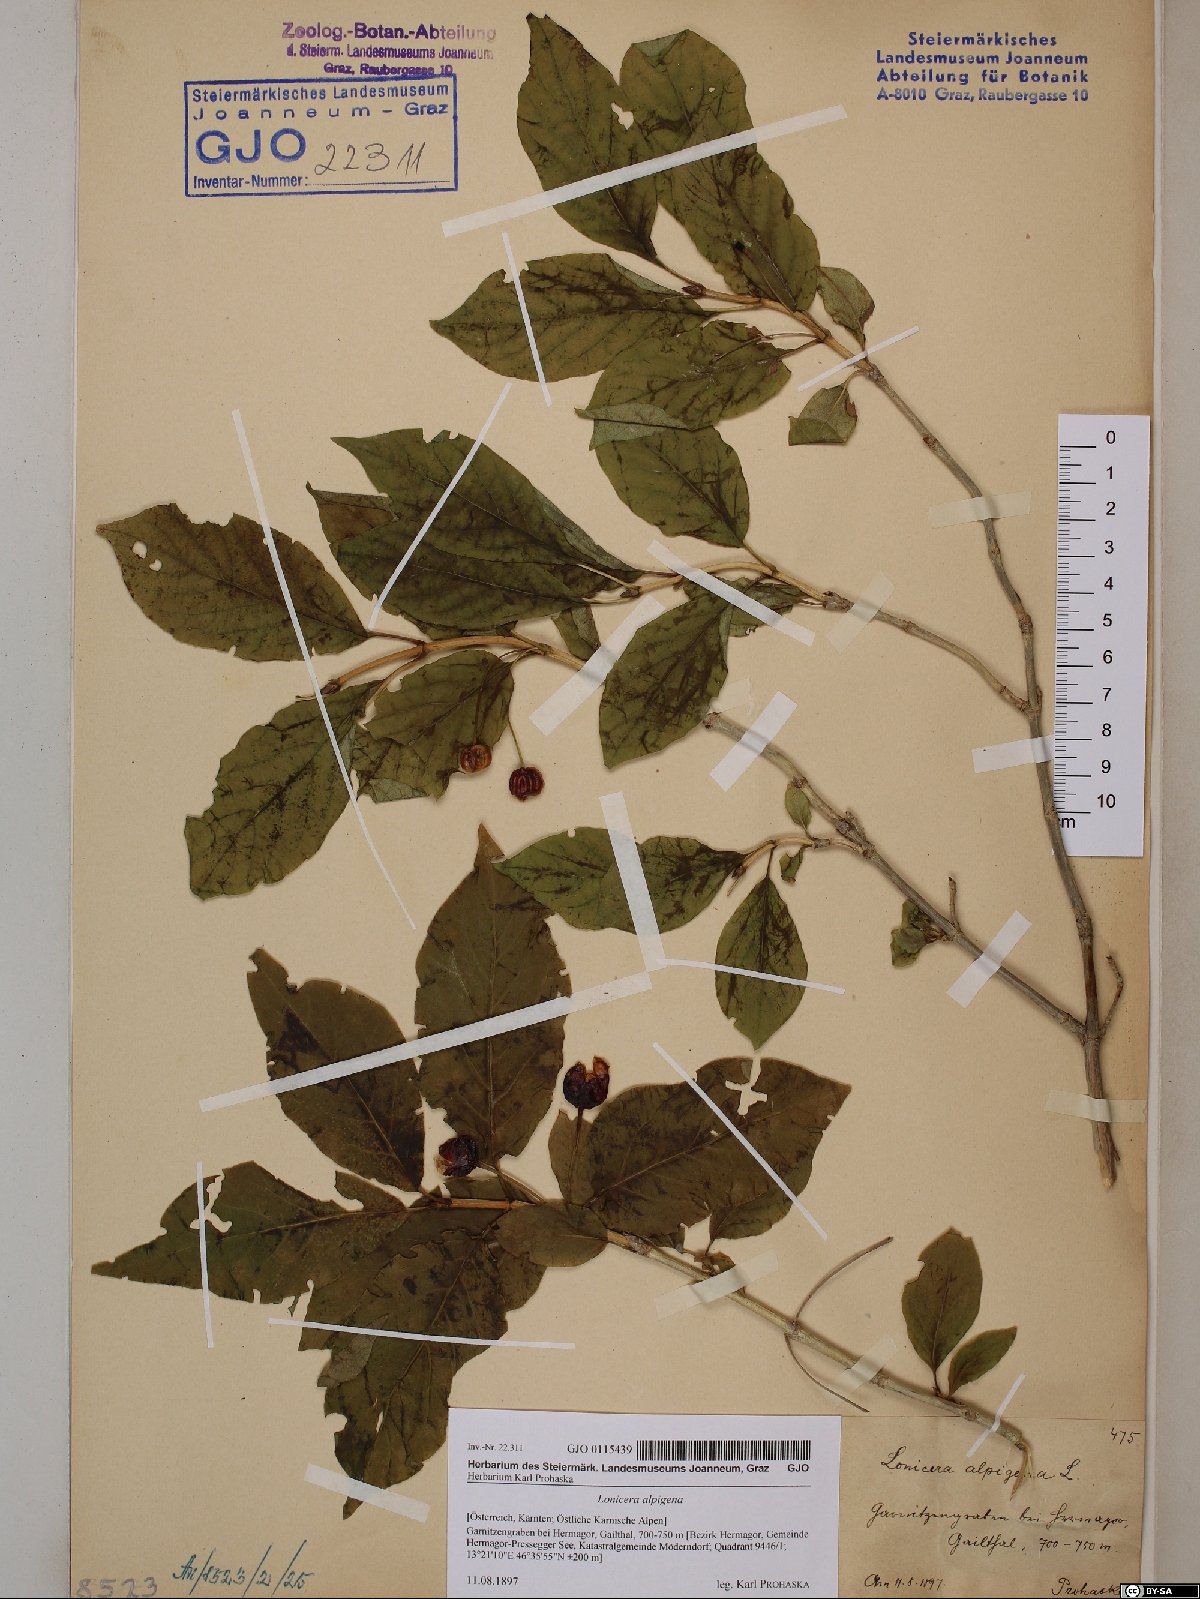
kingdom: Plantae
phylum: Tracheophyta
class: Magnoliopsida
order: Dipsacales
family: Caprifoliaceae
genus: Lonicera
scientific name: Lonicera alpigena
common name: Alpine honeysuckle
